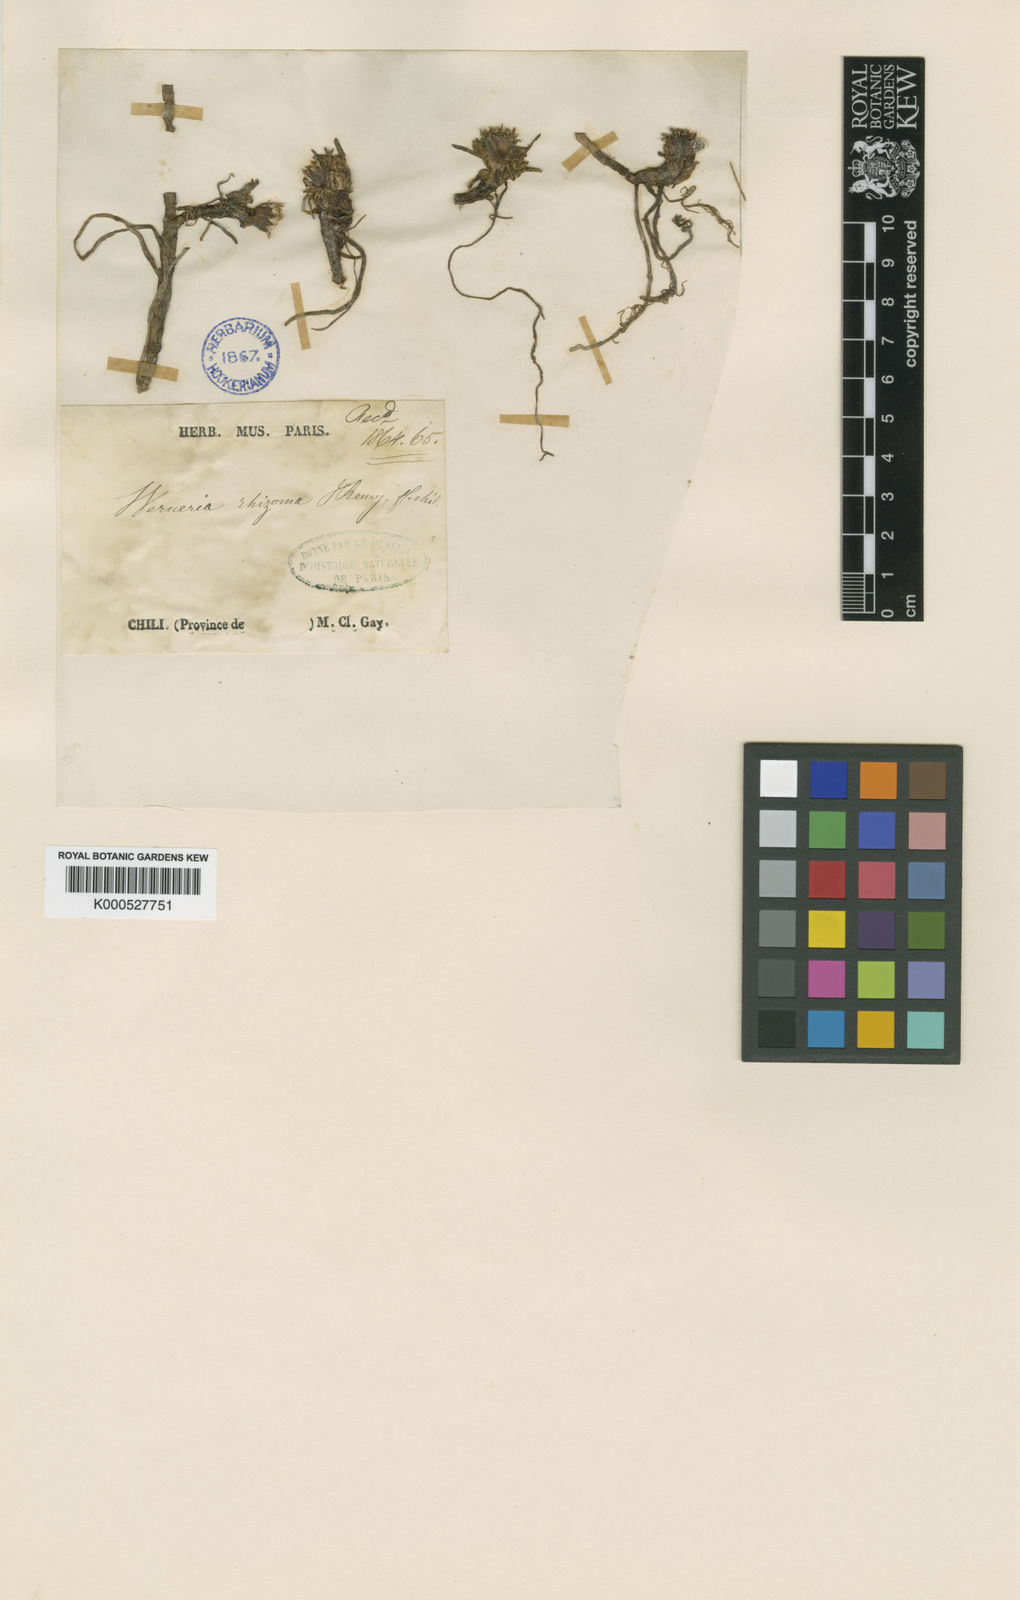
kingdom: Plantae
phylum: Tracheophyta
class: Magnoliopsida
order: Asterales
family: Asteraceae
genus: Rockhausenia
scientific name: Rockhausenia pygmaea
